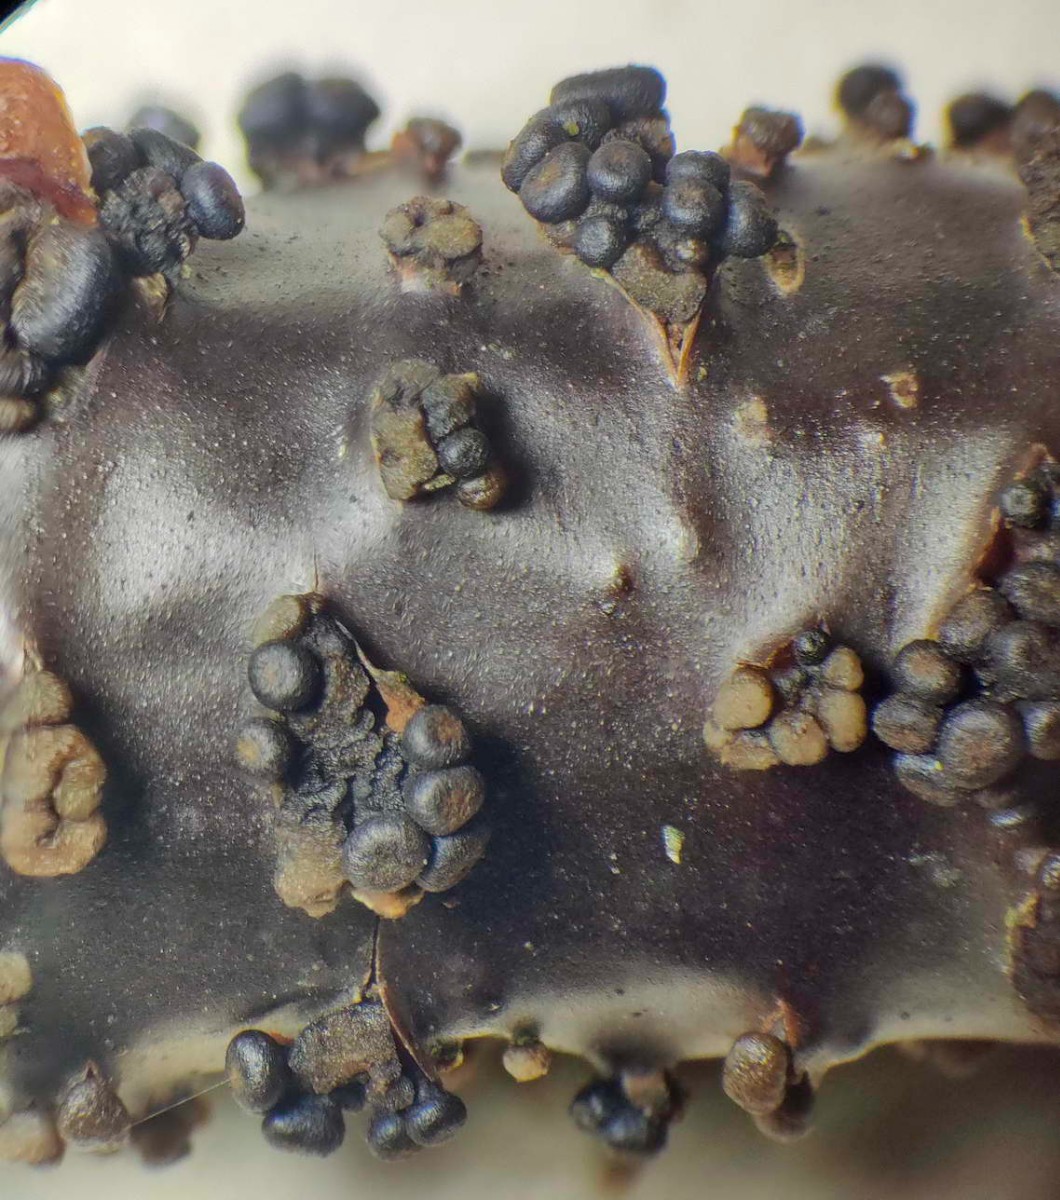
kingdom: Fungi
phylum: Ascomycota
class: Leotiomycetes
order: Helotiales
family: Godroniaceae
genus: Godronia
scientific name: Godronia ribis
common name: ribs-urneskive
